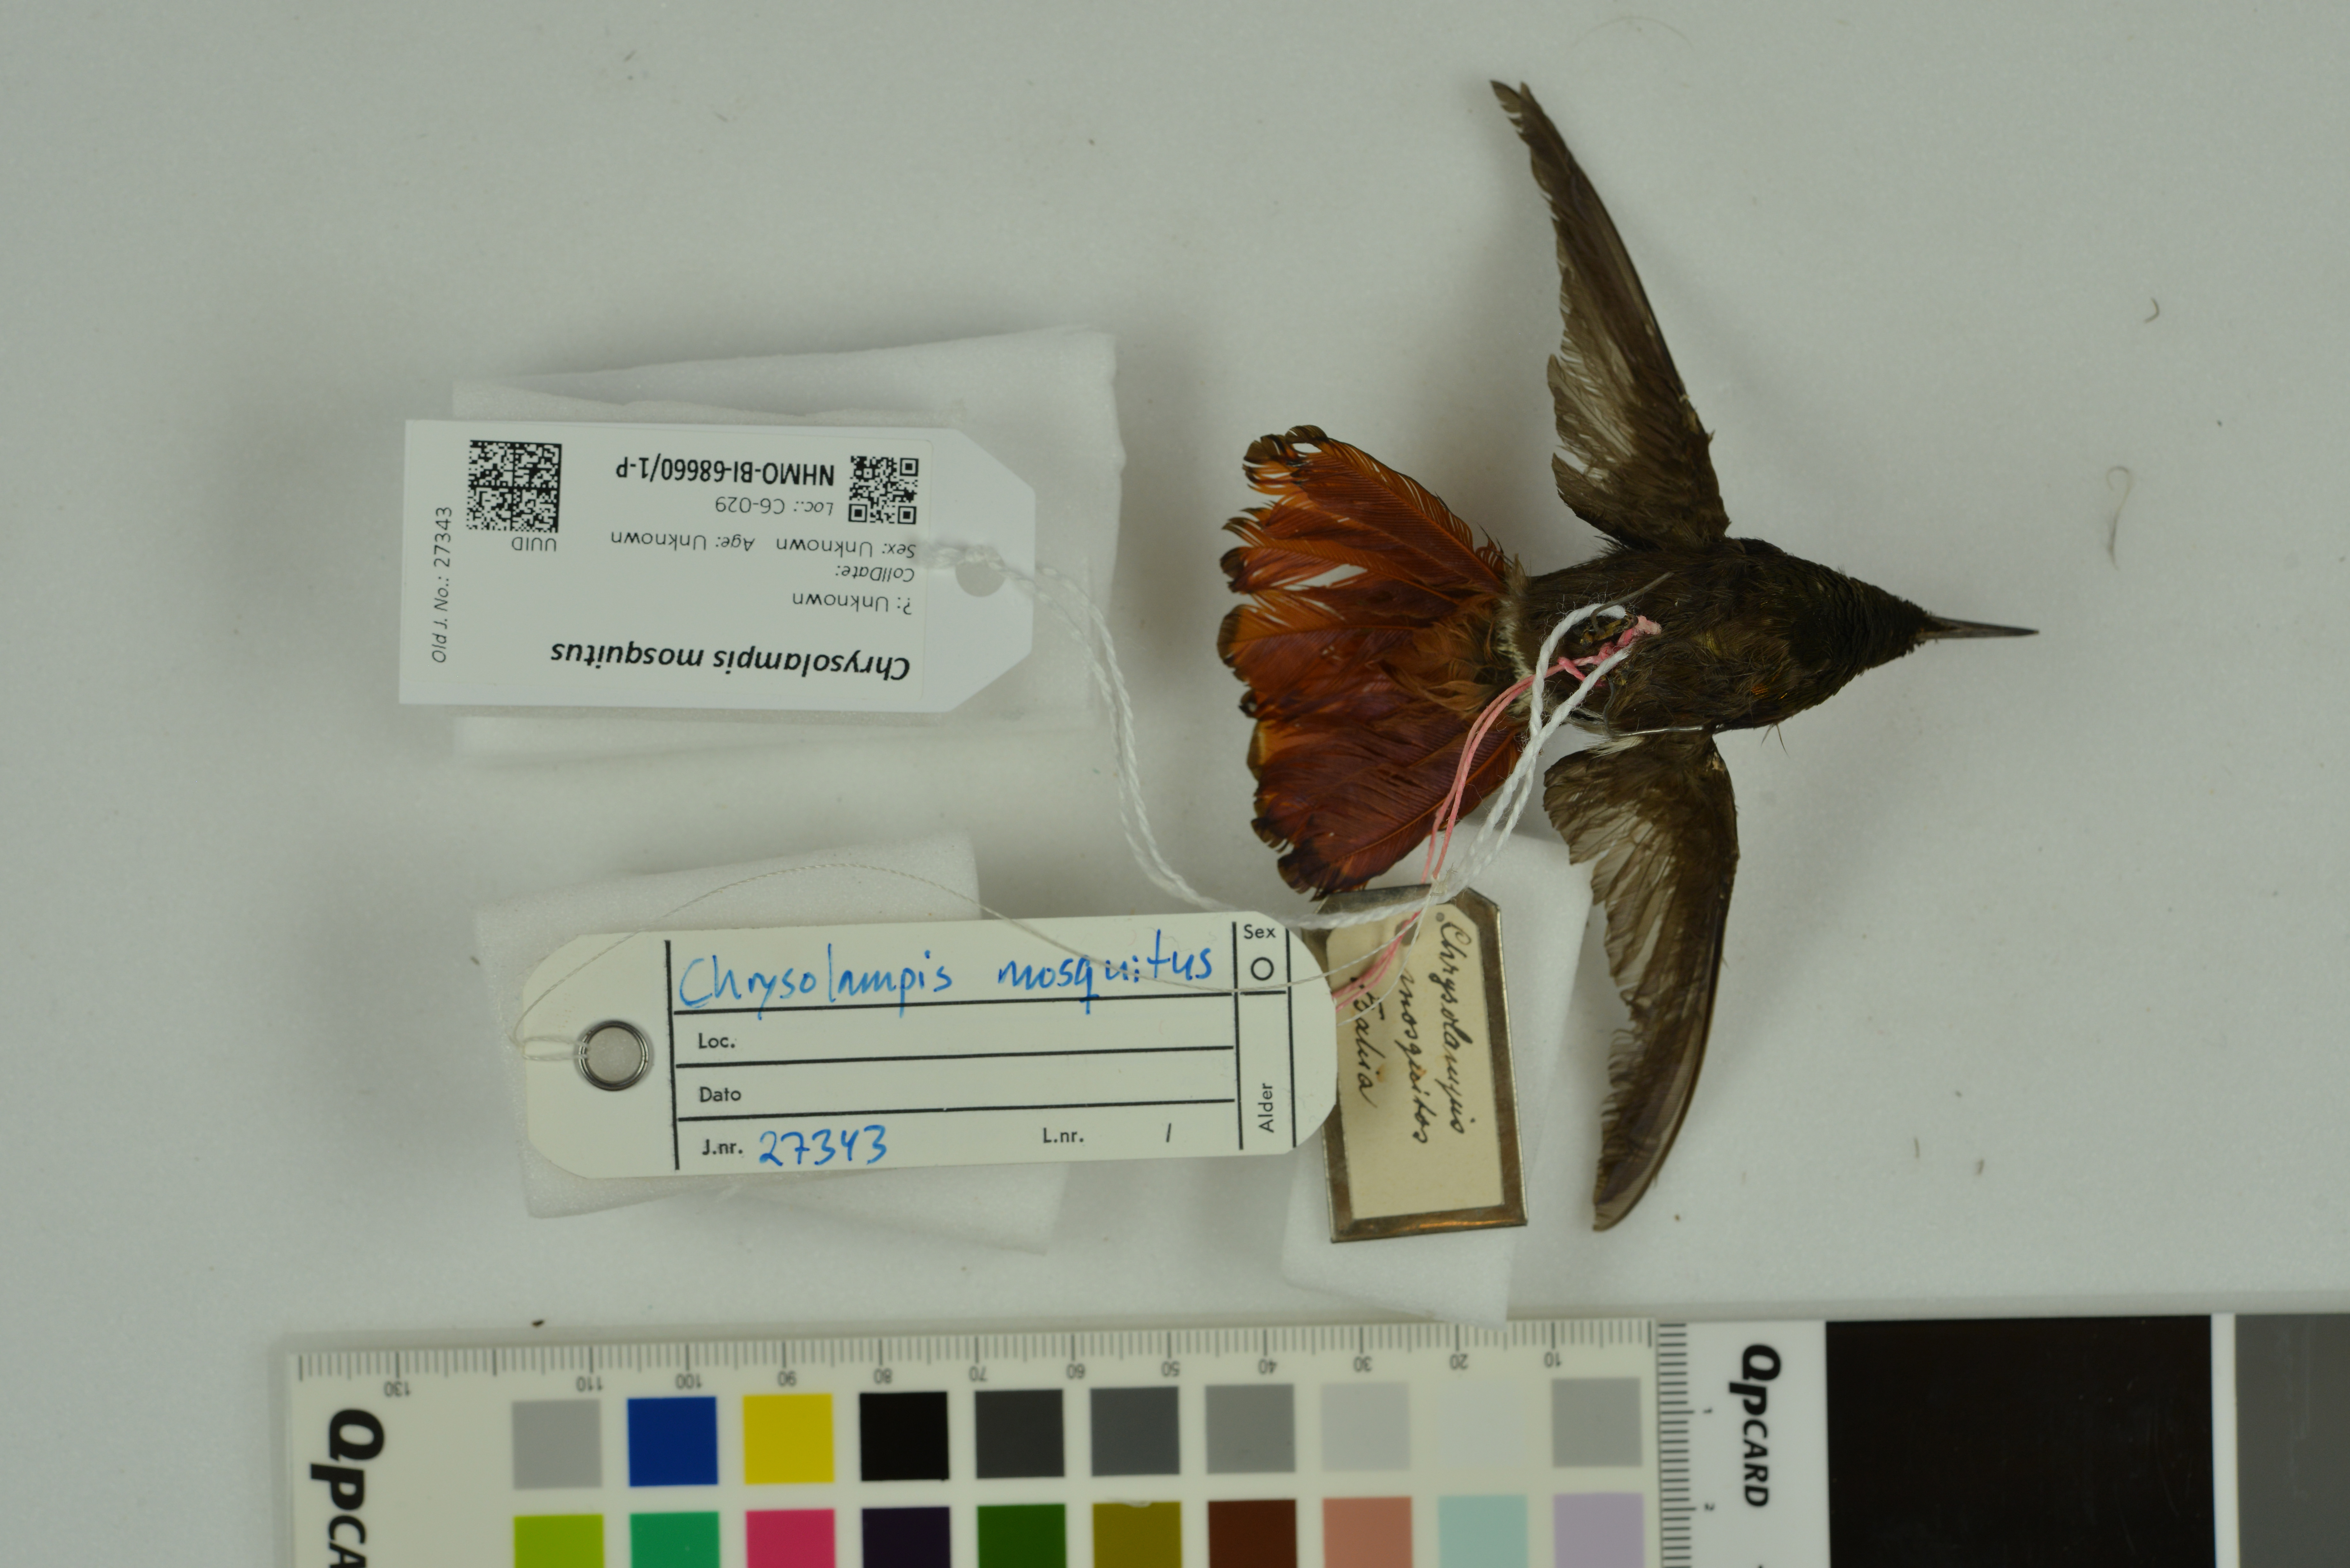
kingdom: Animalia
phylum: Chordata
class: Aves
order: Apodiformes
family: Trochilidae
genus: Chrysolampis
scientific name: Chrysolampis mosquitus
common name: Ruby-topaz hummingbird
